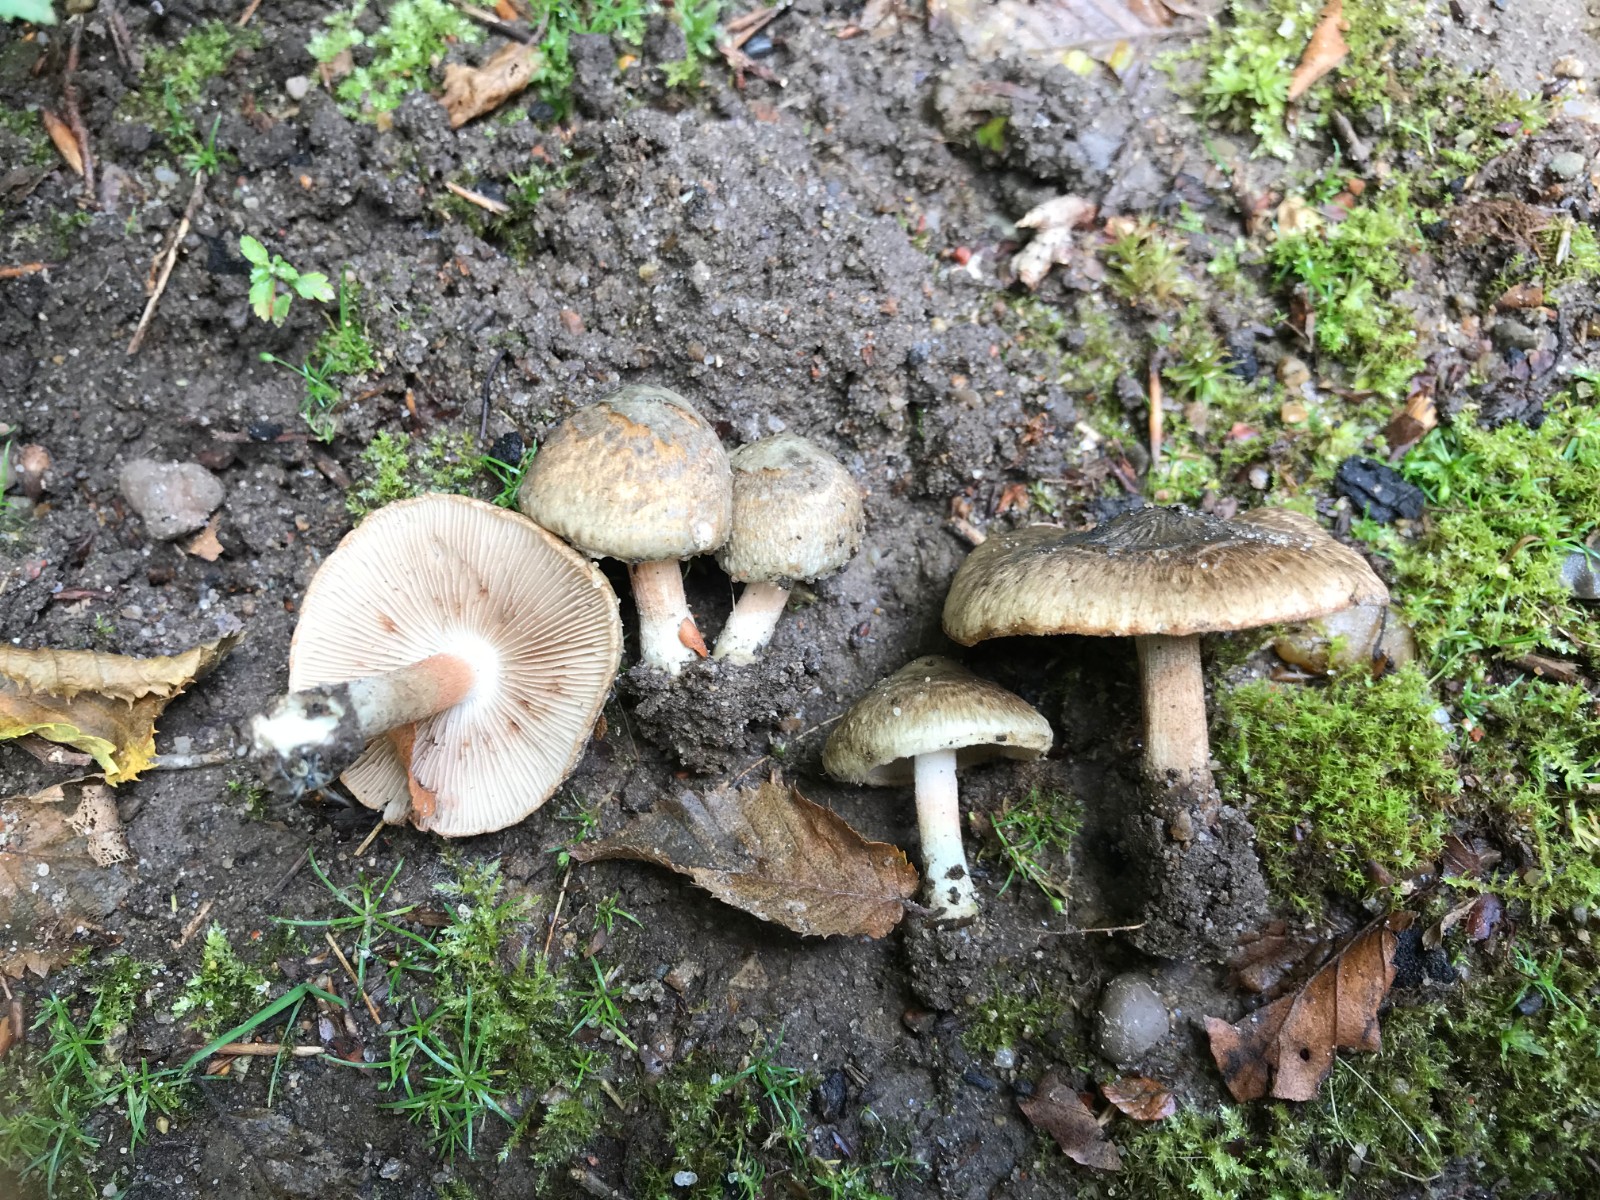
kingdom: Fungi
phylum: Basidiomycota
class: Agaricomycetes
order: Agaricales
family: Inocybaceae
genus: Inocybe
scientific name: Inocybe haemacta
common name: blågrøn trævlhat
